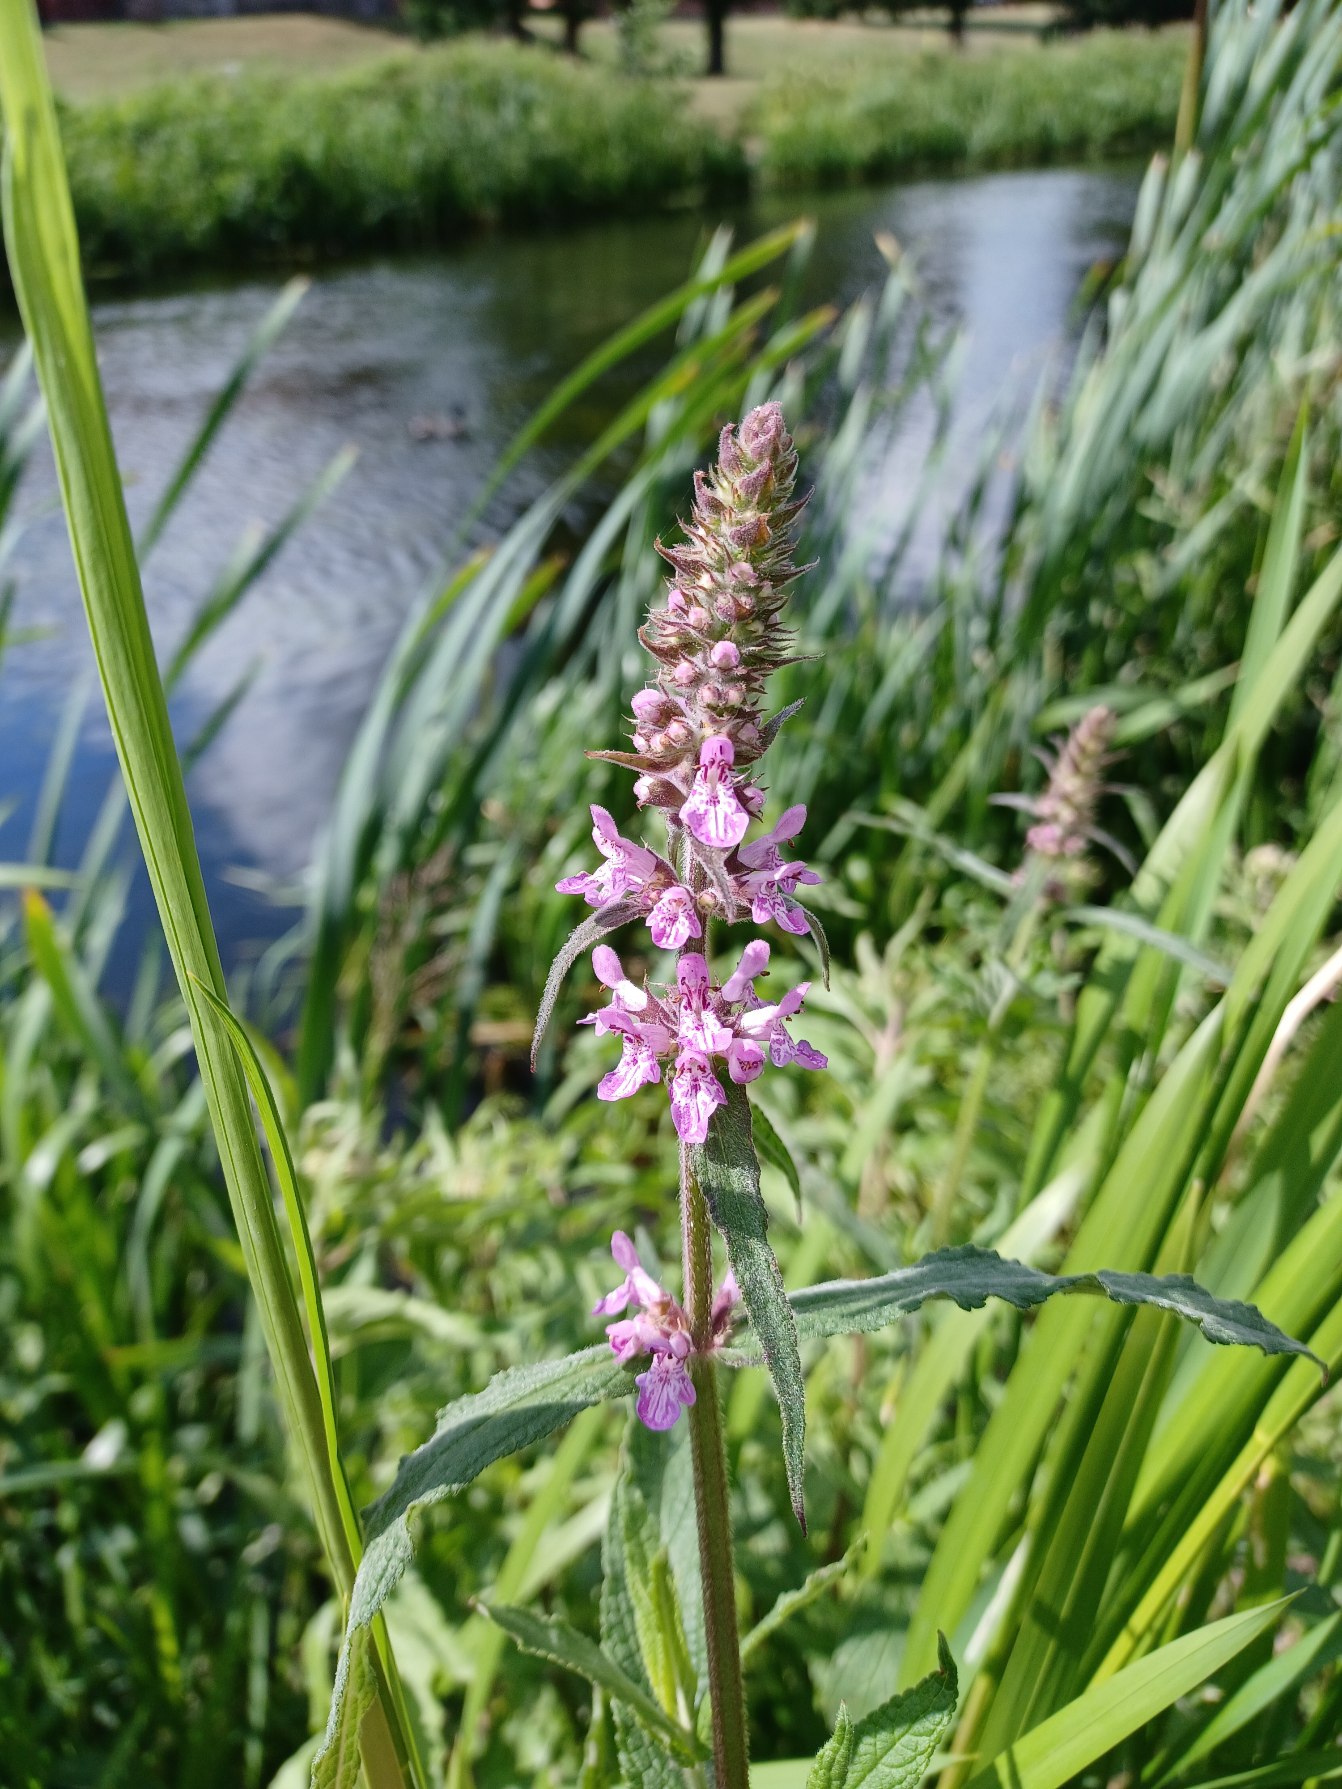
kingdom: Plantae
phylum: Tracheophyta
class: Magnoliopsida
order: Lamiales
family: Lamiaceae
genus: Stachys
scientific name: Stachys palustris
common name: Kær-galtetand
